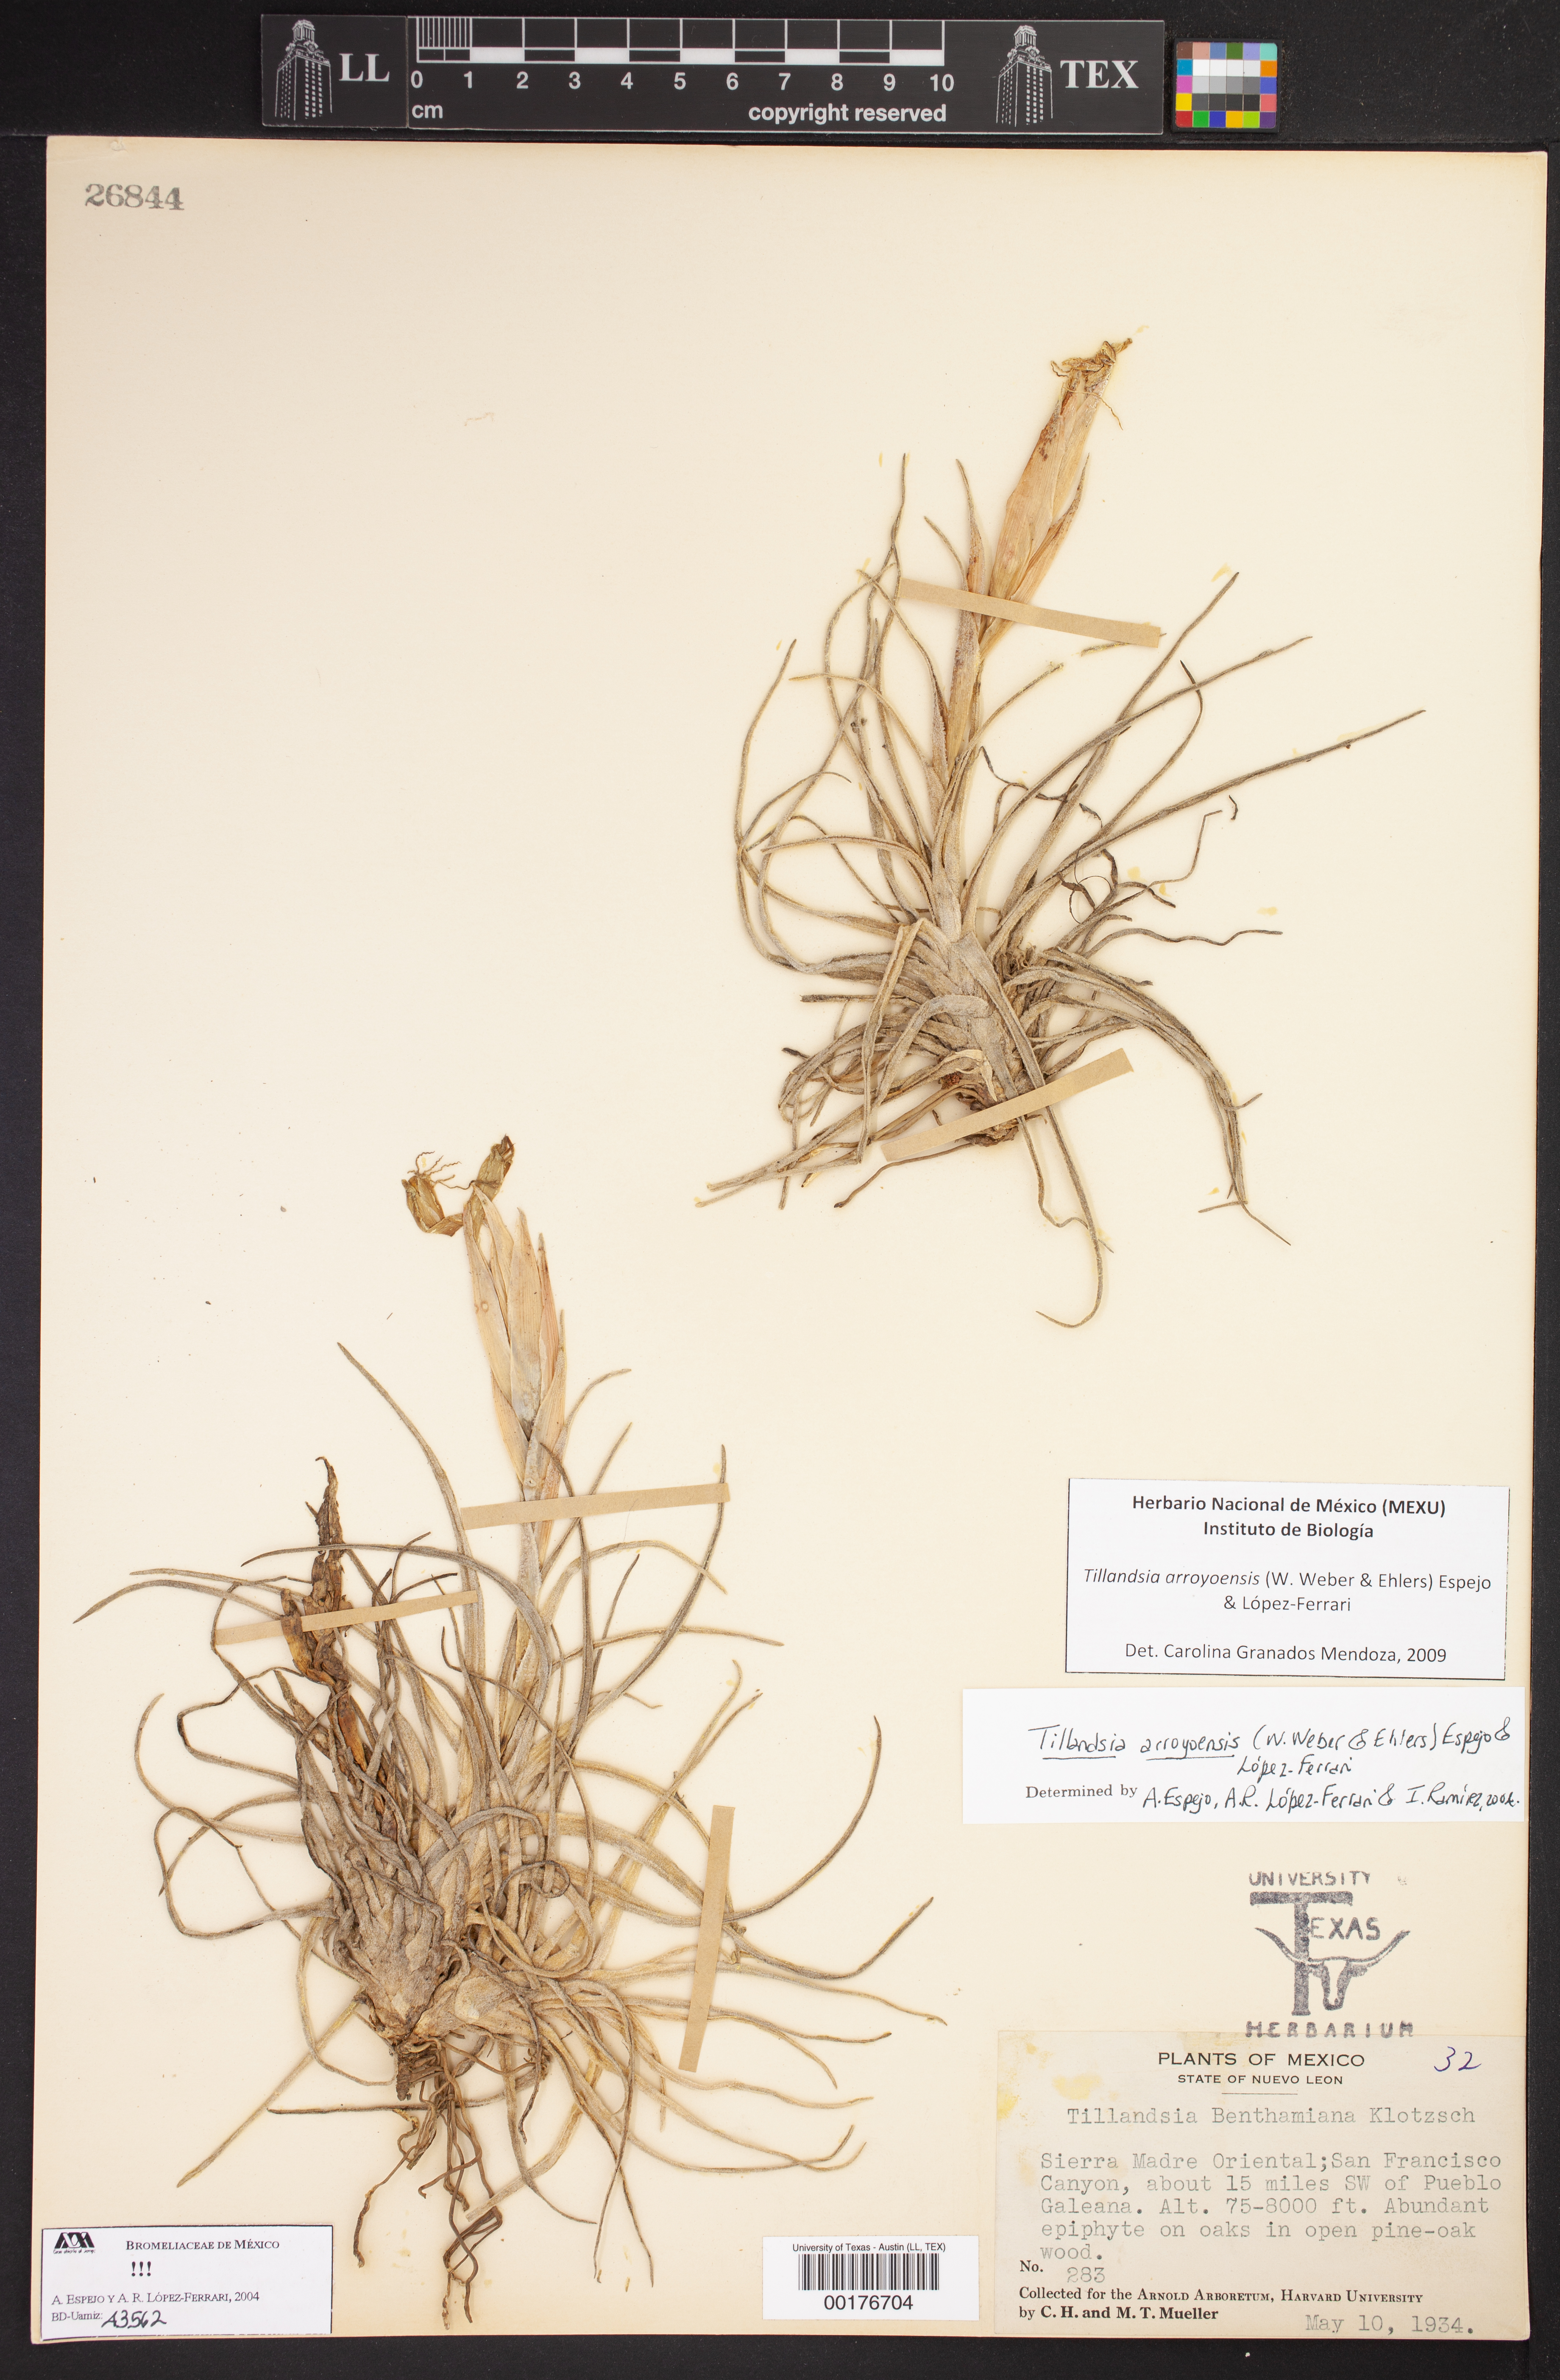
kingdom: Plantae
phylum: Tracheophyta
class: Liliopsida
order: Poales
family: Bromeliaceae
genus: Tillandsia
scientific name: Tillandsia benthamiana
